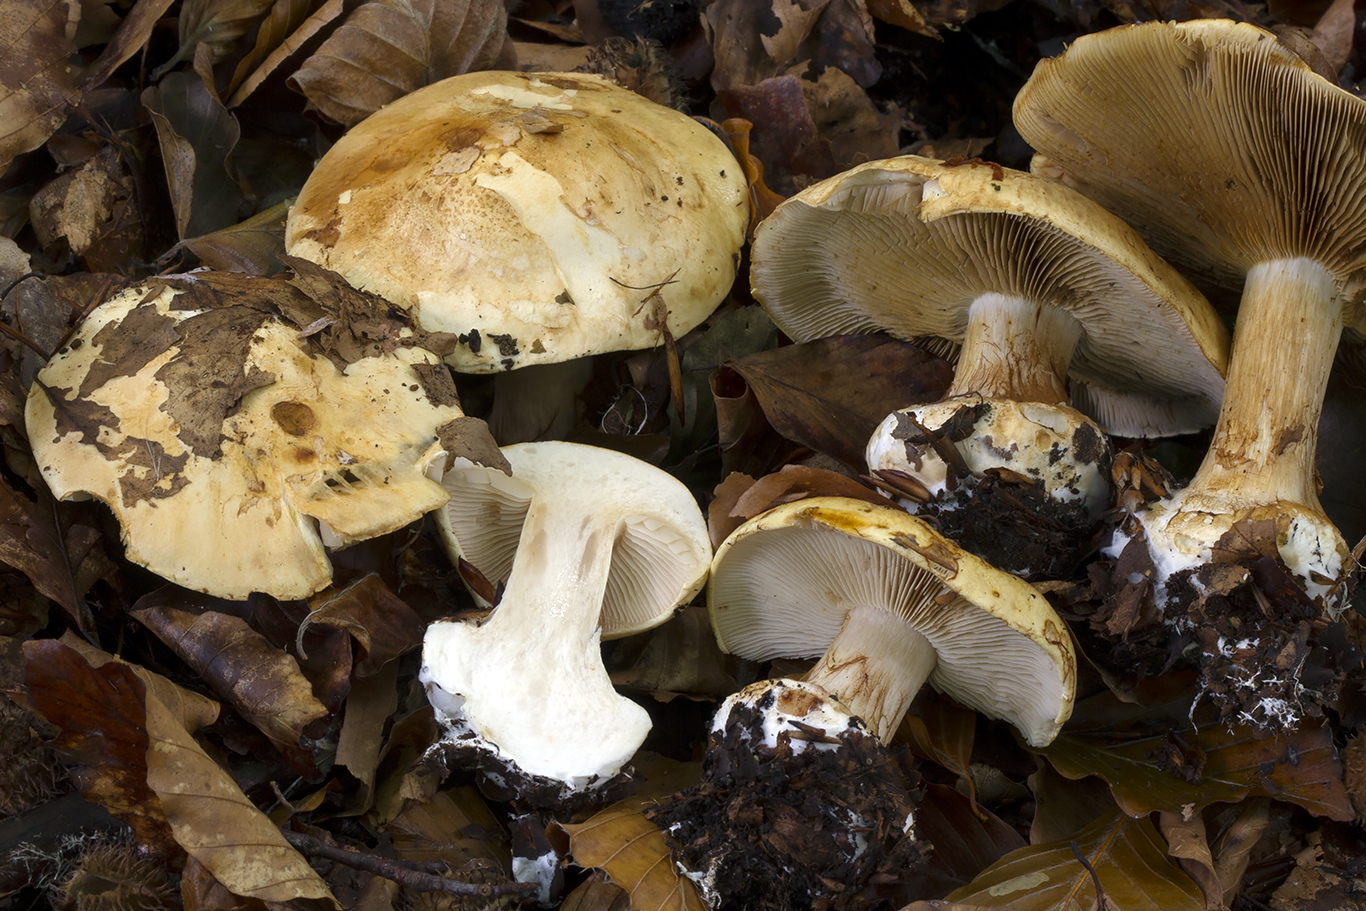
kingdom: Fungi
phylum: Basidiomycota
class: Agaricomycetes
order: Agaricales
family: Cortinariaceae
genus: Calonarius
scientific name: Calonarius osmophorus
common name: duft-slørhat
